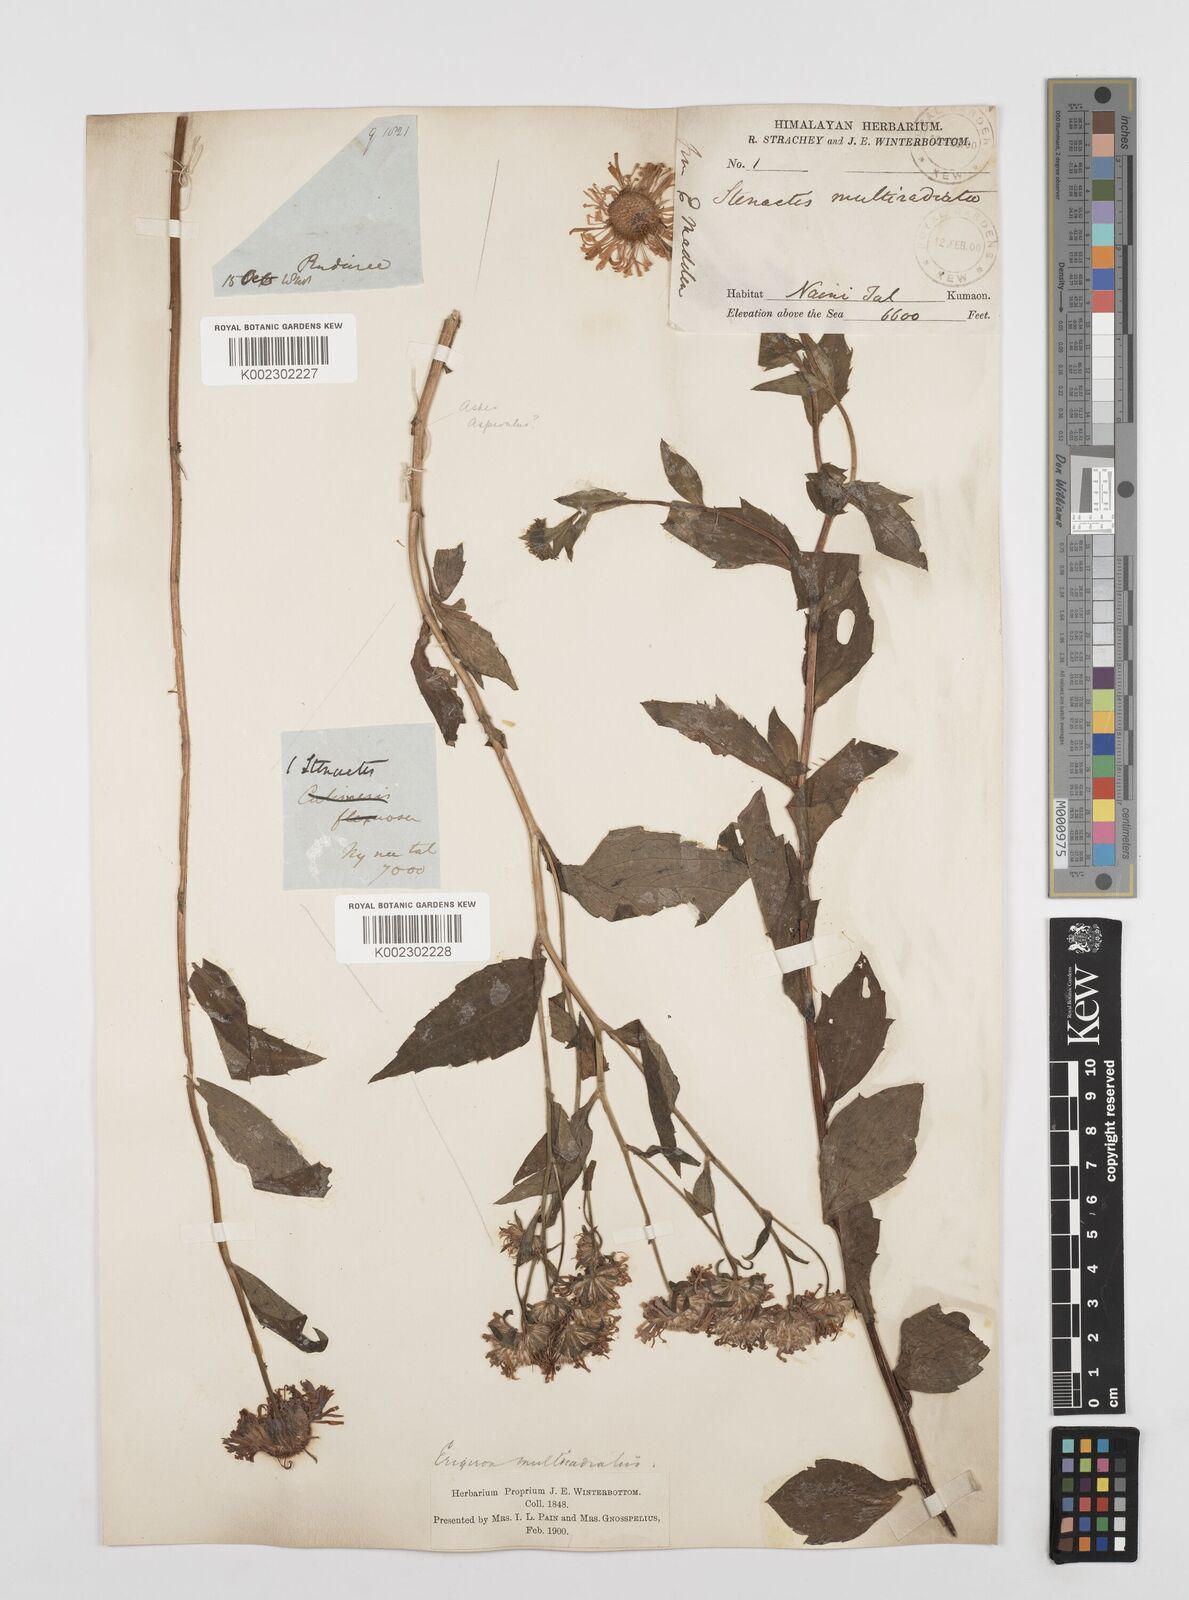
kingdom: Plantae
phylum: Tracheophyta
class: Magnoliopsida
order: Asterales
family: Asteraceae
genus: Erigeron
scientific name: Erigeron acris
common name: Blue fleabane
